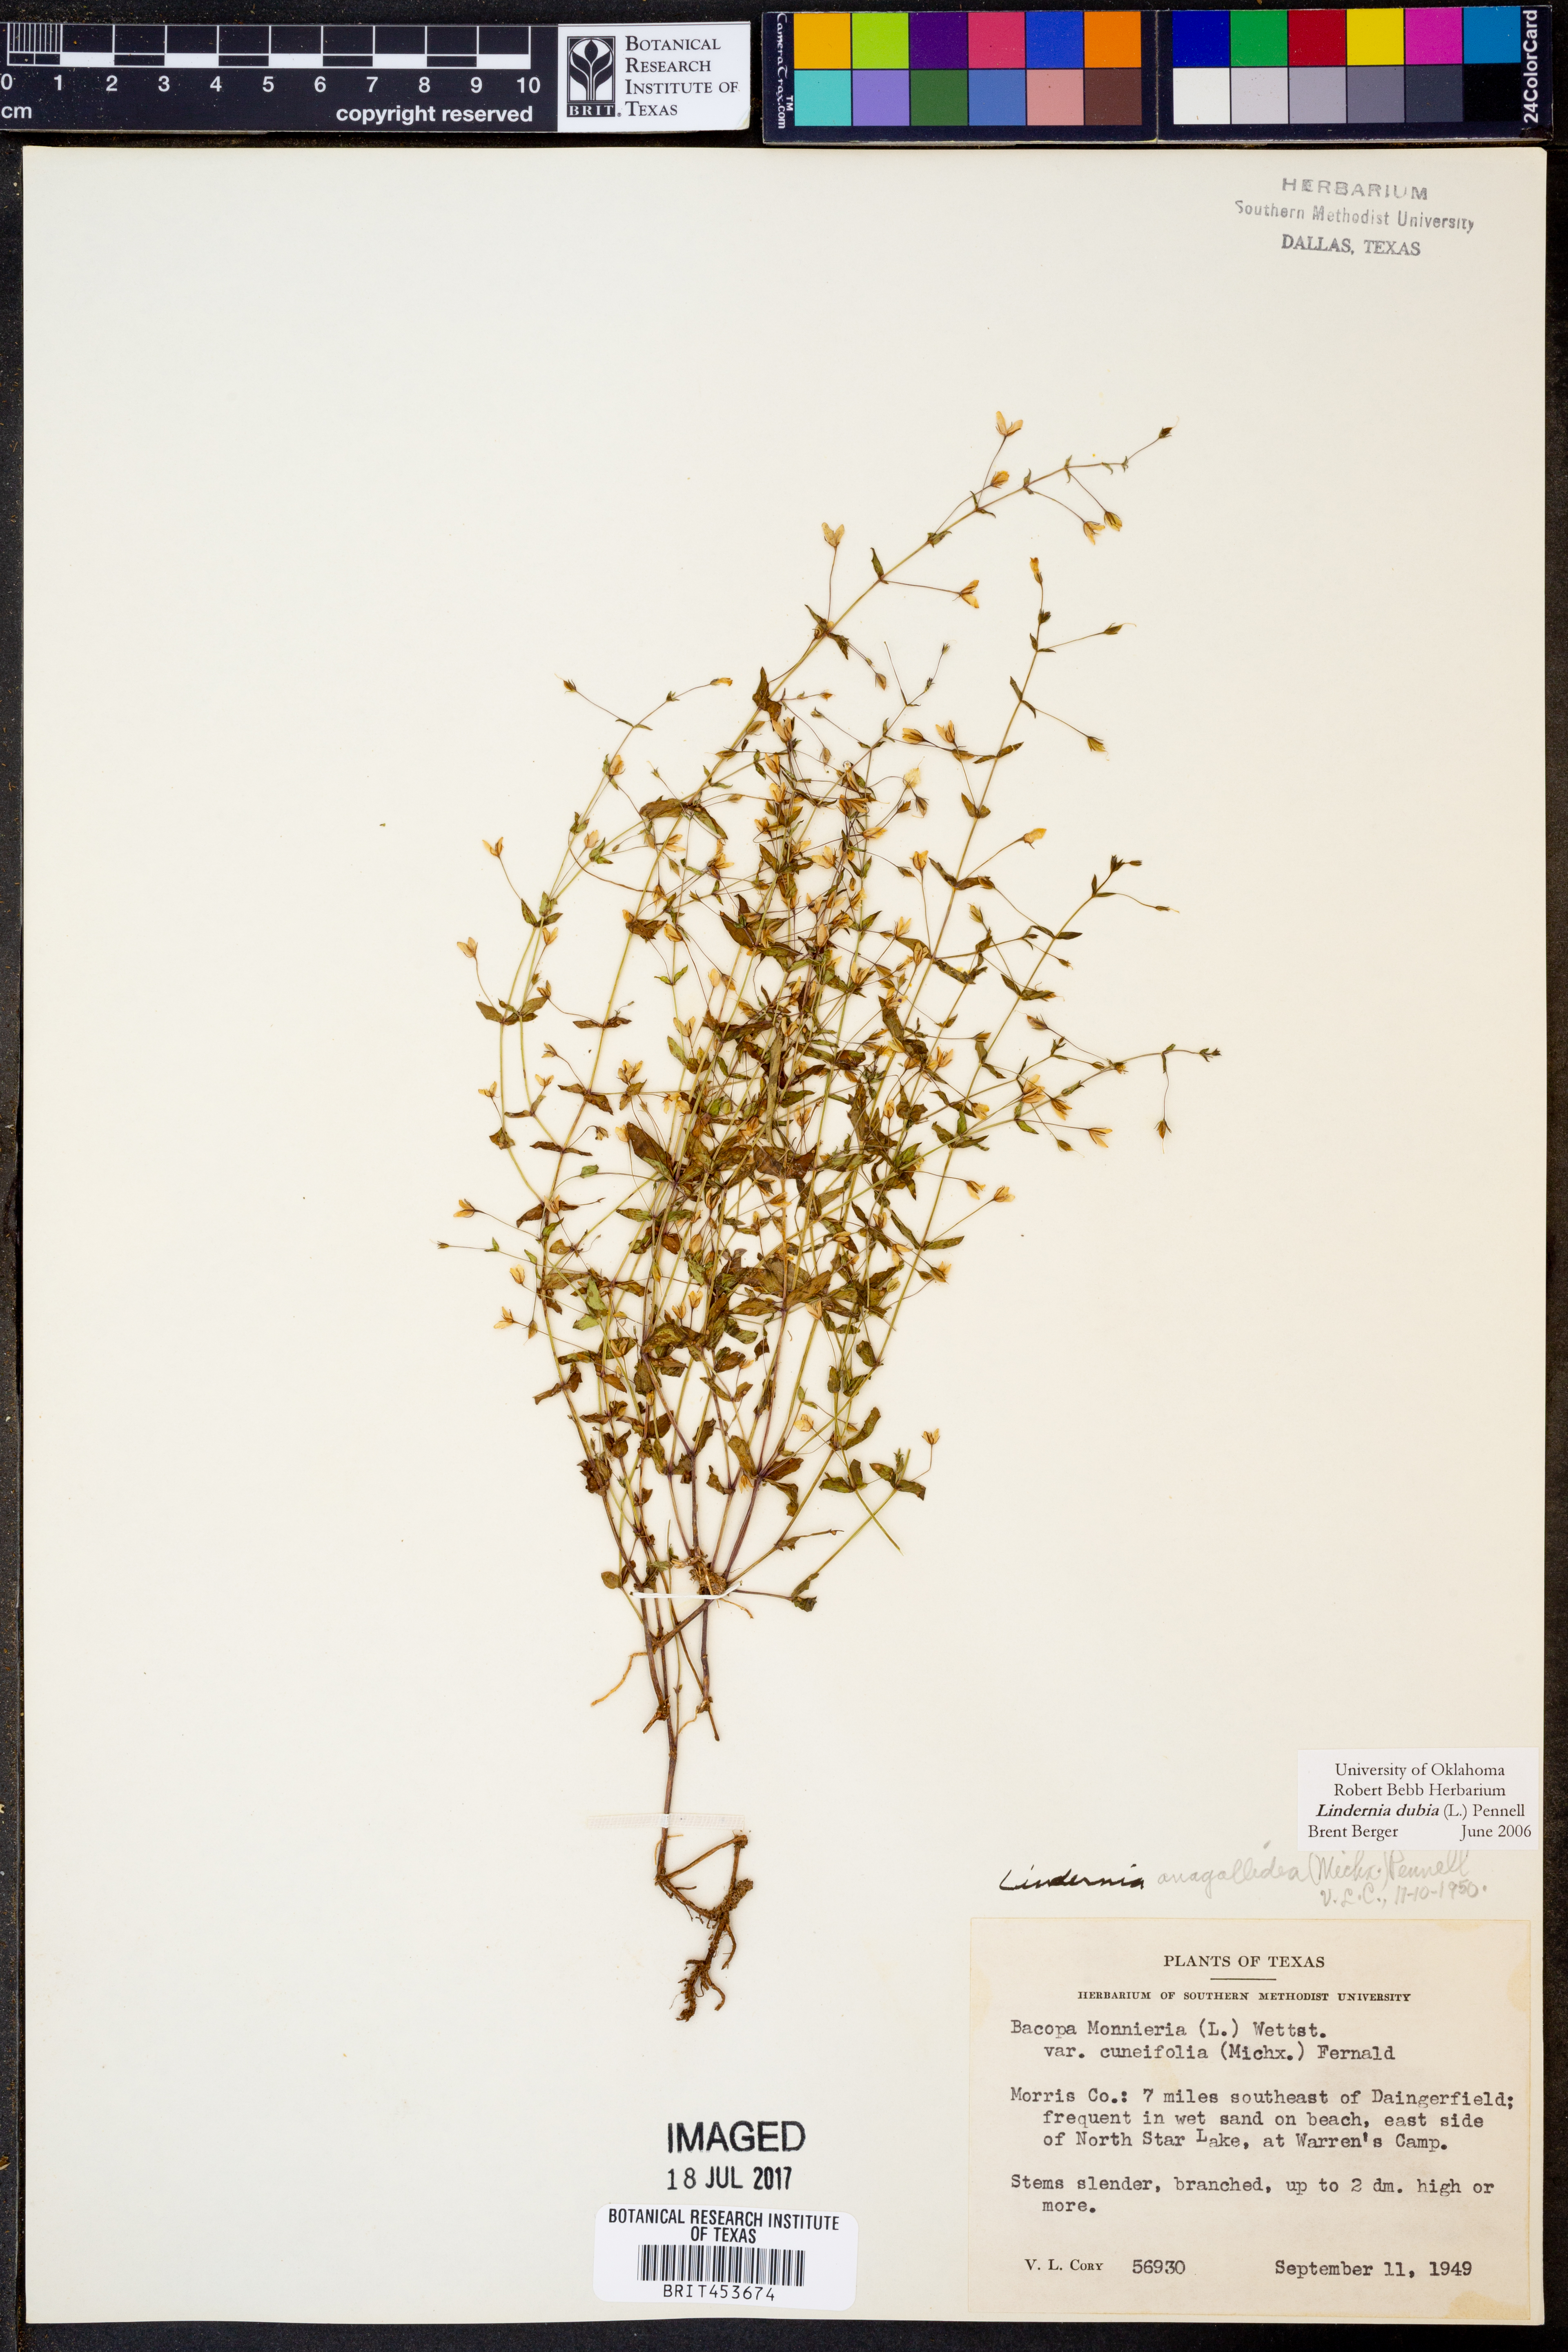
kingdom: Plantae
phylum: Tracheophyta
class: Magnoliopsida
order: Lamiales
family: Linderniaceae
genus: Lindernia
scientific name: Lindernia dubia
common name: Annual false pimpernel
